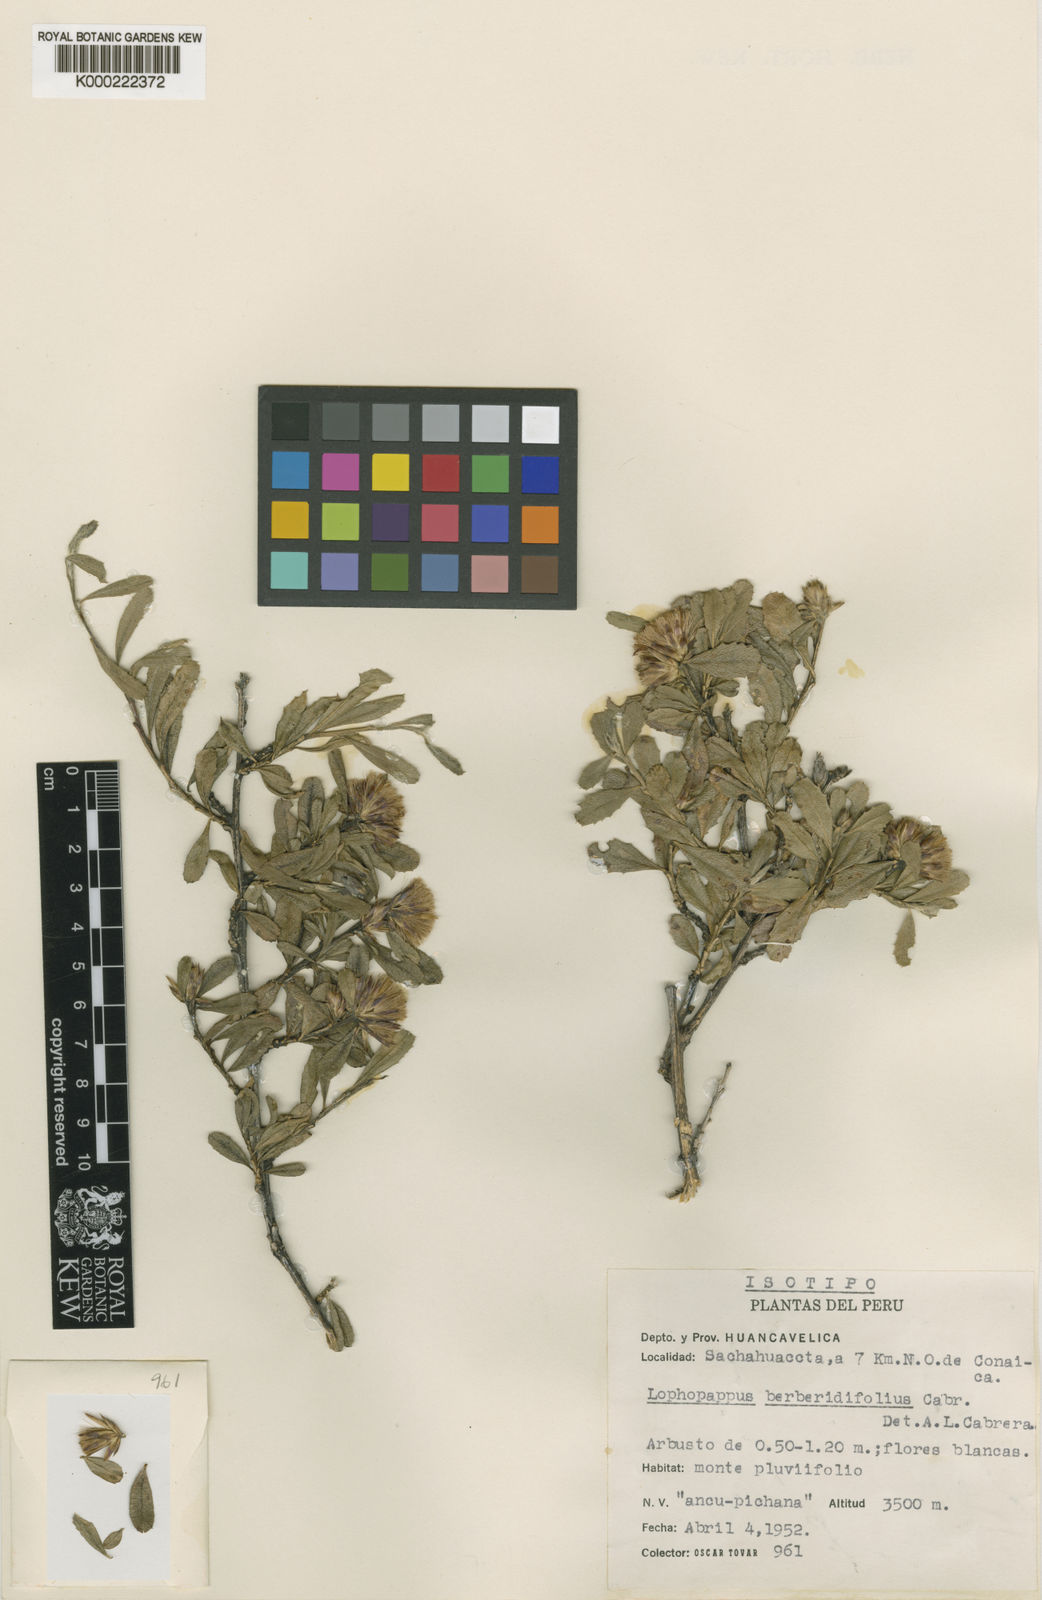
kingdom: Plantae
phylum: Tracheophyta
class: Magnoliopsida
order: Asterales
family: Asteraceae
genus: Lophopappus
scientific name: Lophopappus berberidifolius
